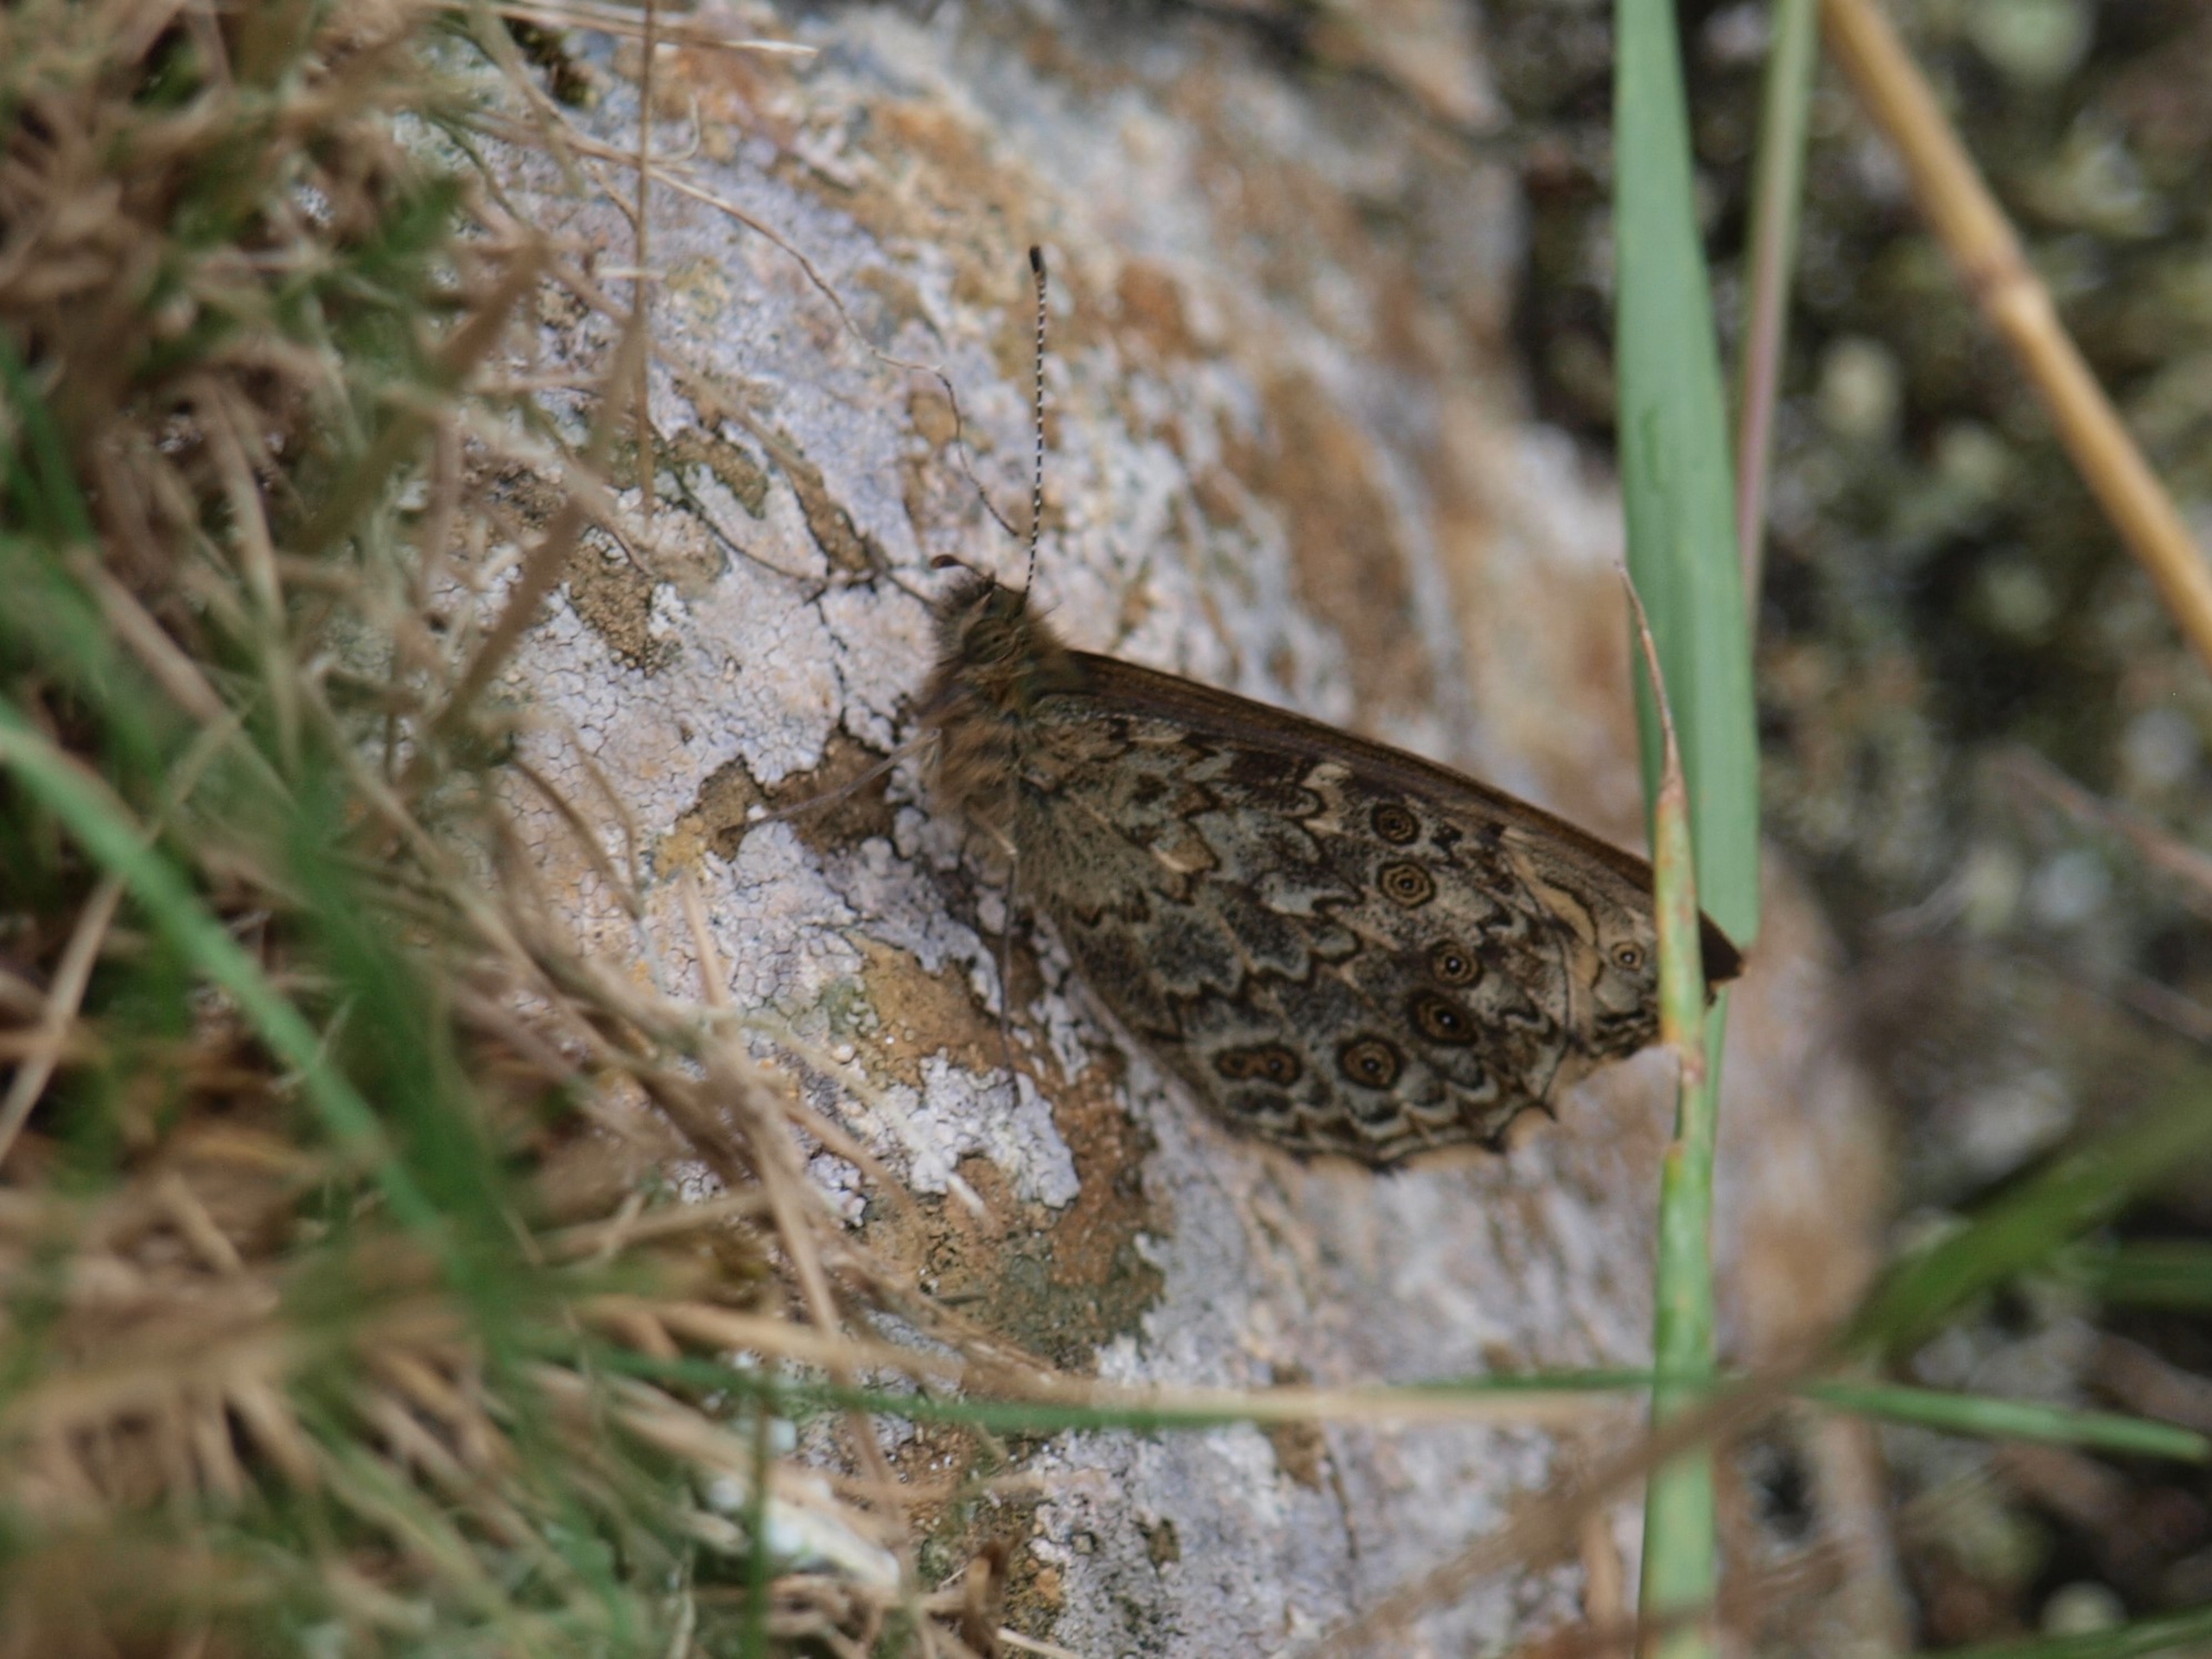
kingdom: Animalia
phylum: Arthropoda
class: Insecta
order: Lepidoptera
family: Nymphalidae
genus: Pararge
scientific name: Pararge Lasiommata megera
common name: Vejrandøje
